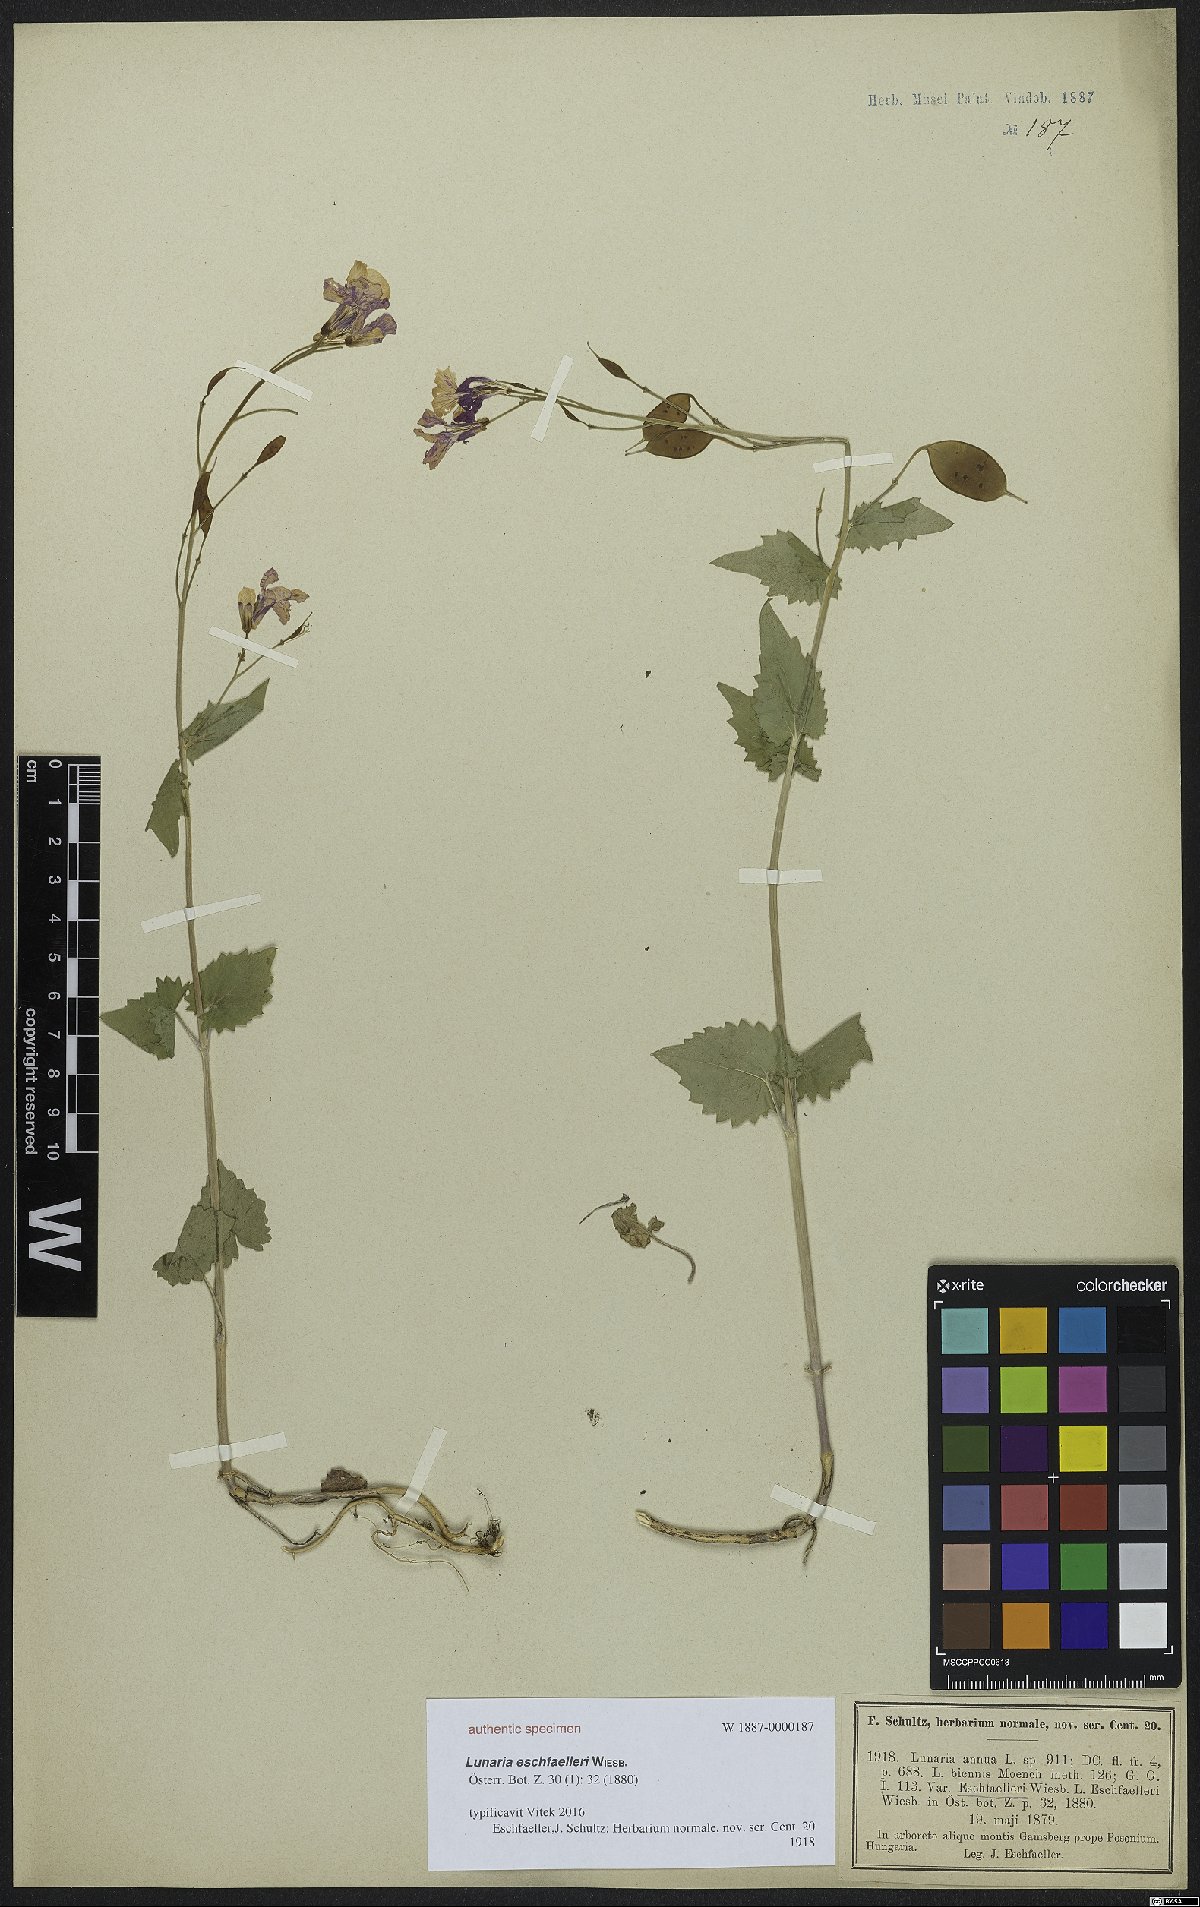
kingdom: Plantae
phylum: Tracheophyta
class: Magnoliopsida
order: Brassicales
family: Brassicaceae
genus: Lunaria
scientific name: Lunaria annua
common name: Honesty
